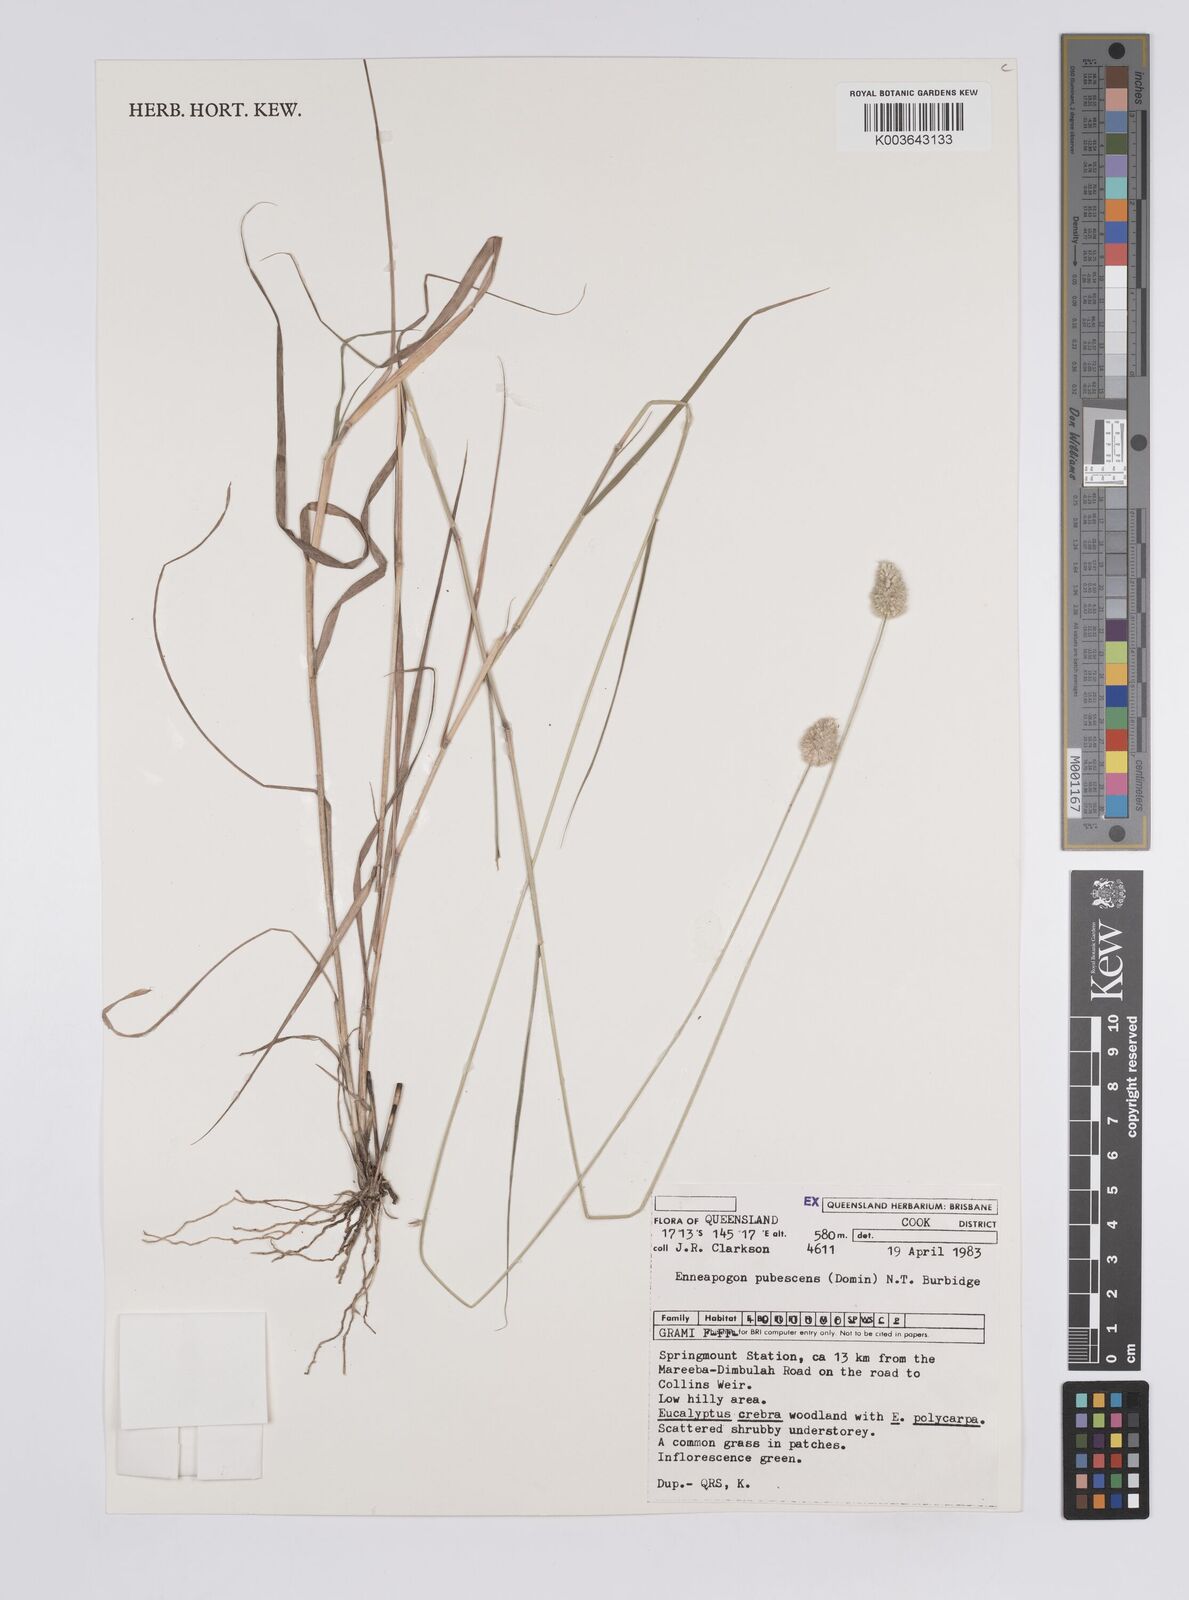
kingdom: Plantae
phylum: Tracheophyta
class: Liliopsida
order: Poales
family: Poaceae
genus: Enneapogon
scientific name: Enneapogon lindleyanus
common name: Conetop nineawn
